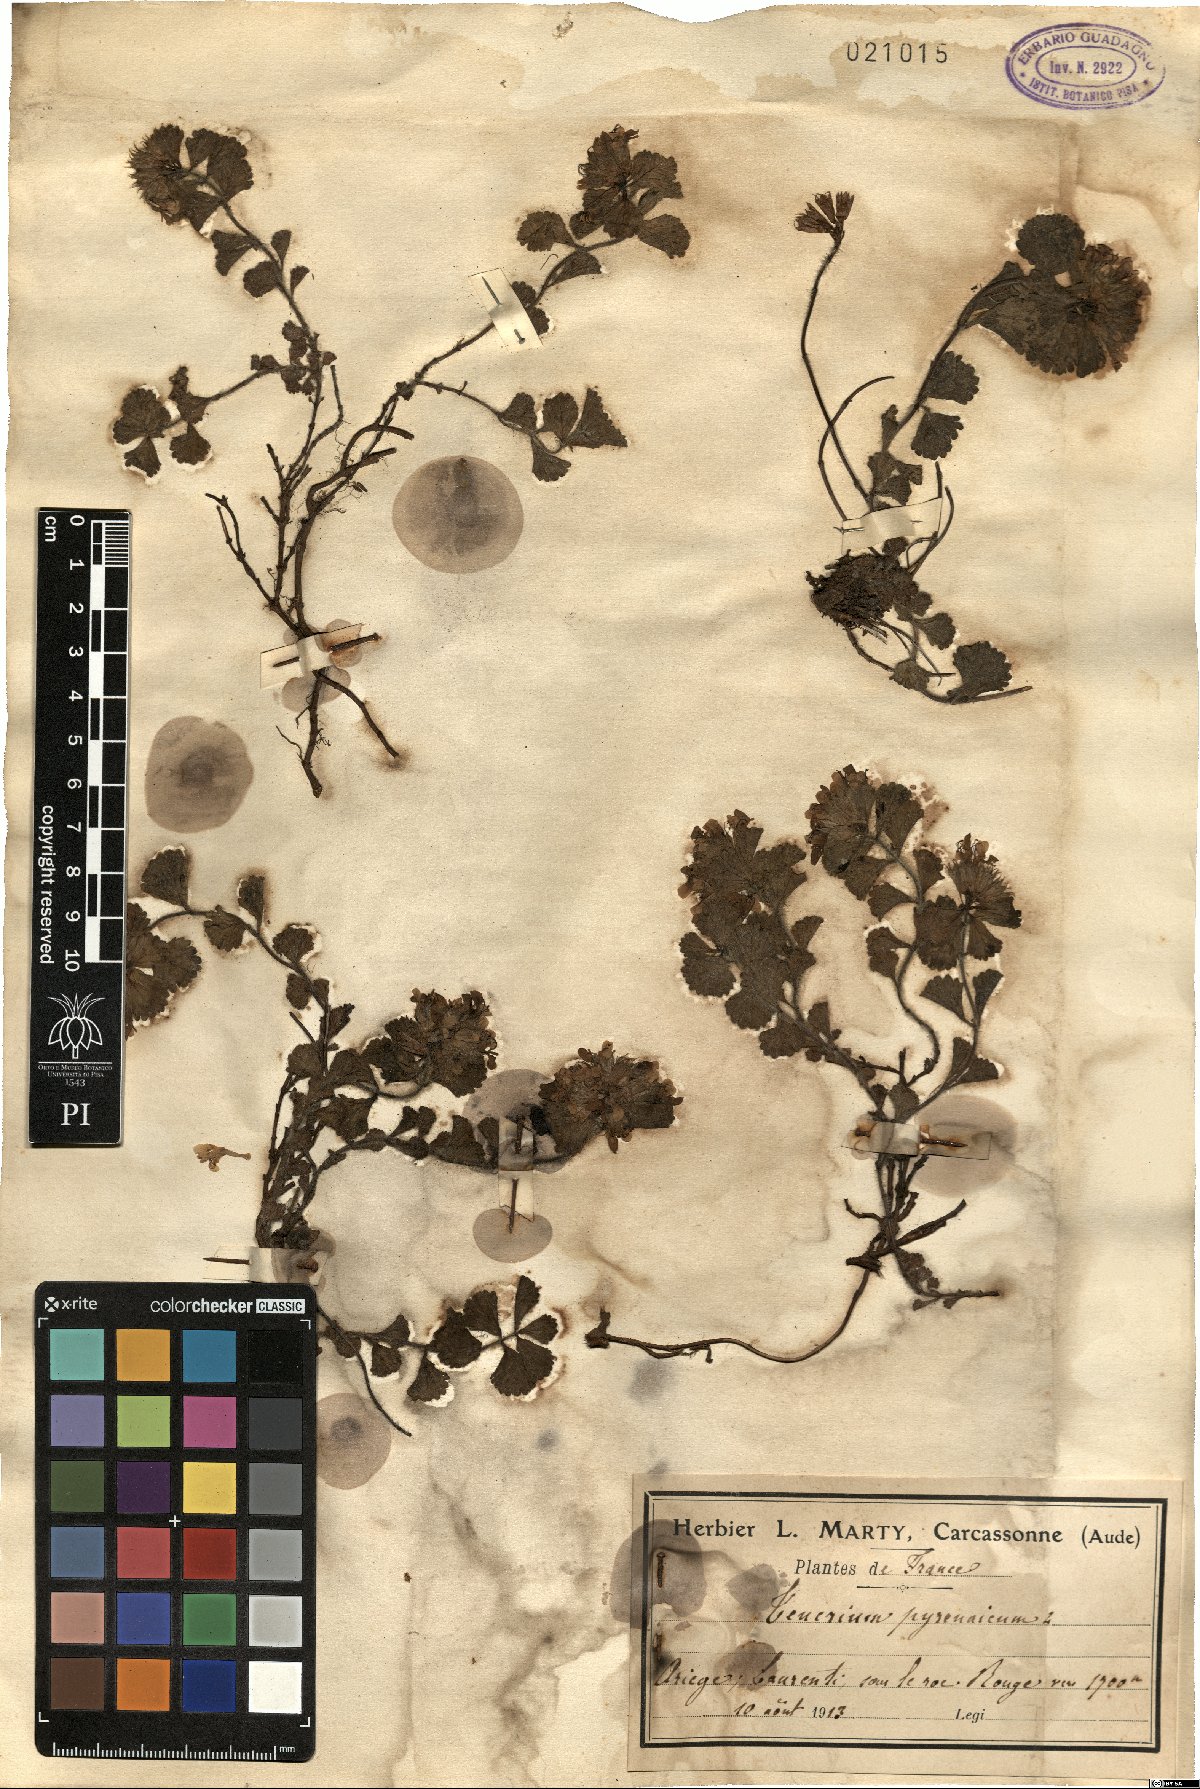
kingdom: Plantae
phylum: Tracheophyta
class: Magnoliopsida
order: Lamiales
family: Lamiaceae
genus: Teucrium
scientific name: Teucrium pyrenaicum
